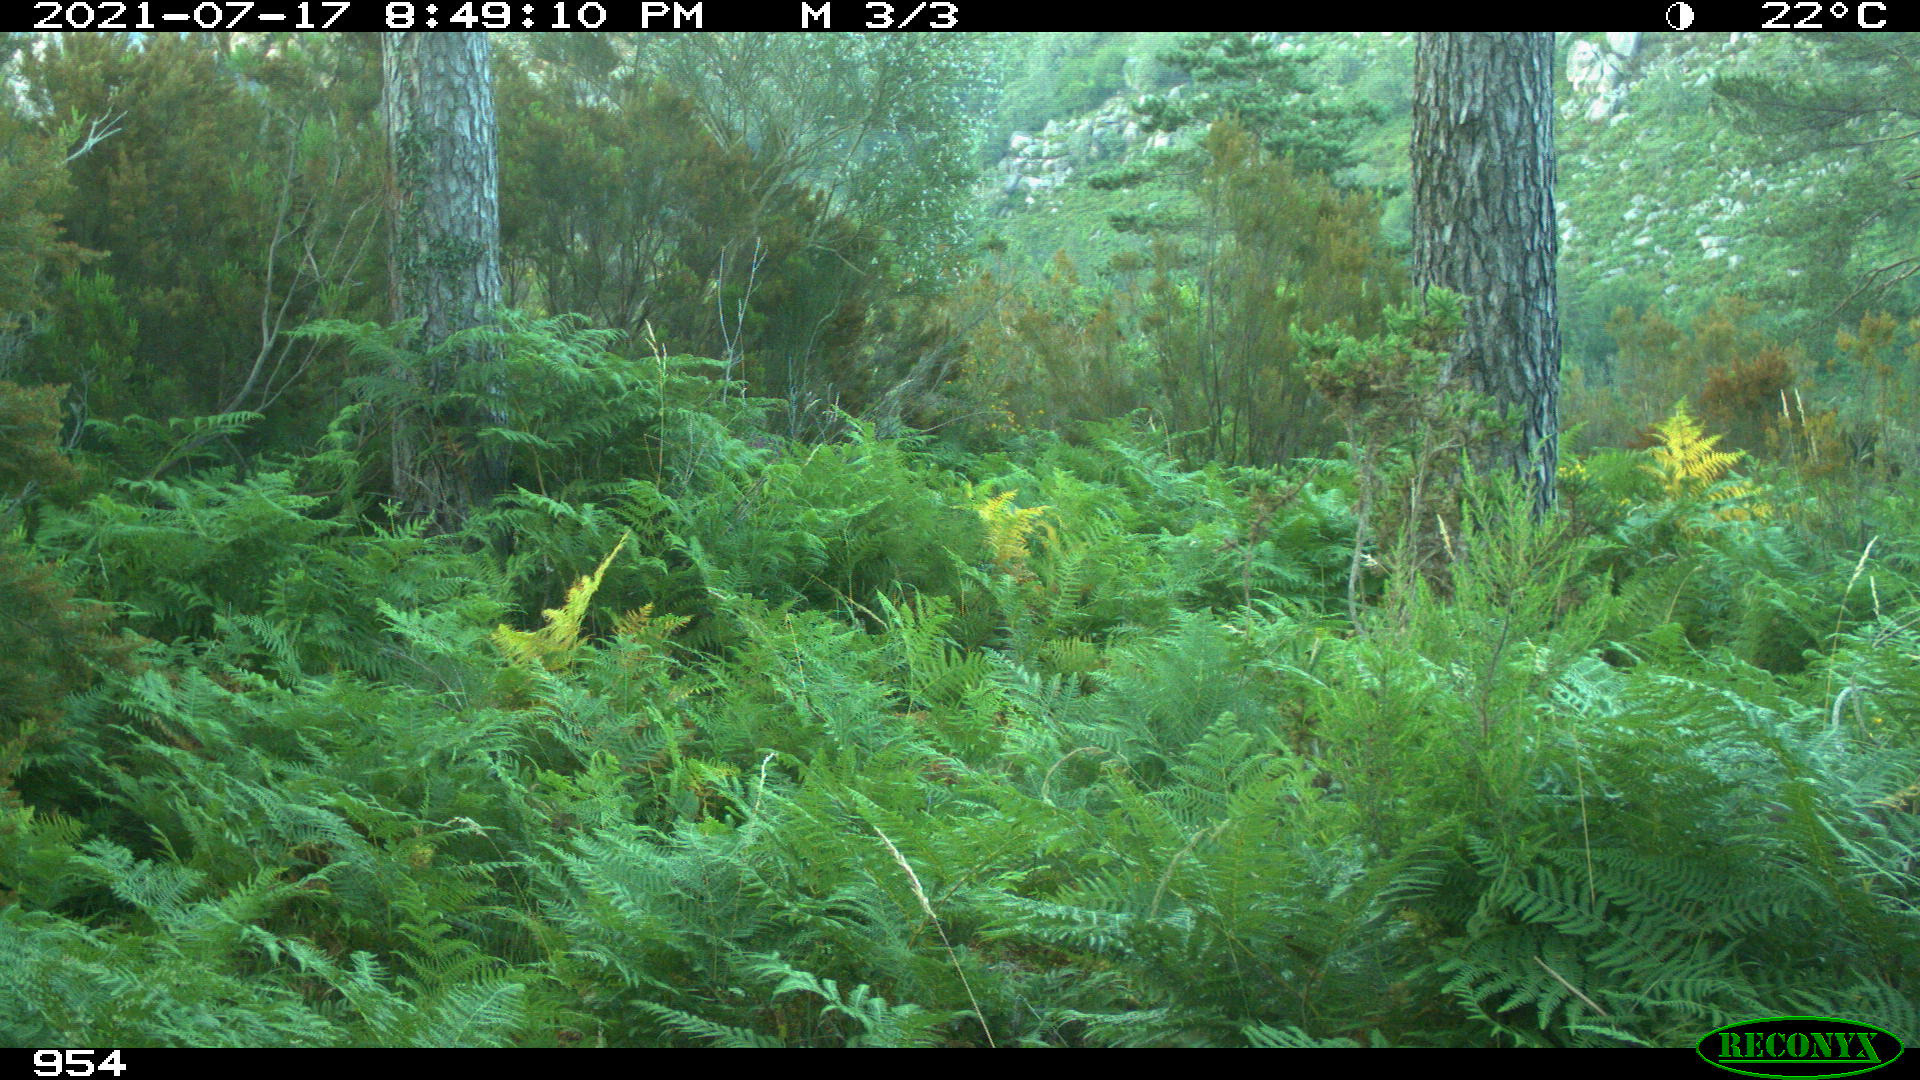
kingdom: Animalia
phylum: Chordata
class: Mammalia
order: Artiodactyla
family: Cervidae
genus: Capreolus
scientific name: Capreolus capreolus
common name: Western roe deer
